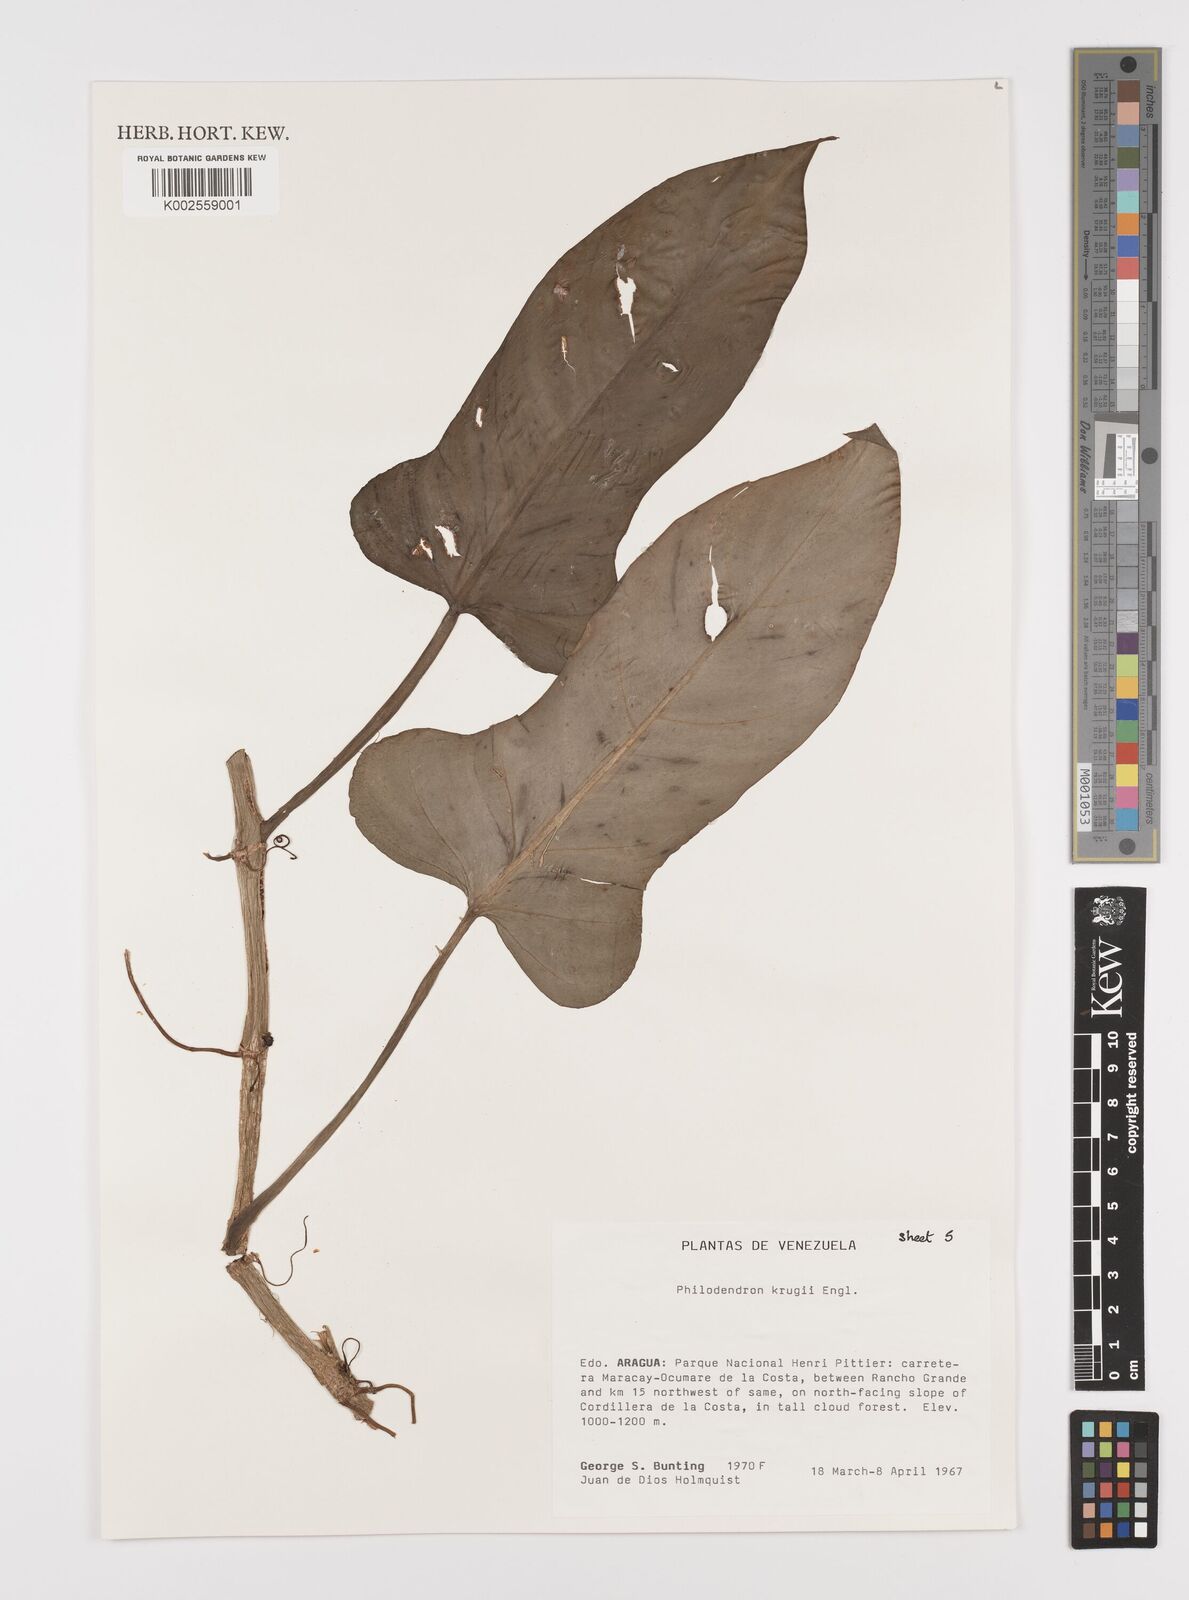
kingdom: Plantae
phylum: Tracheophyta
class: Liliopsida
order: Alismatales
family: Araceae
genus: Philodendron
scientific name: Philodendron krugii
